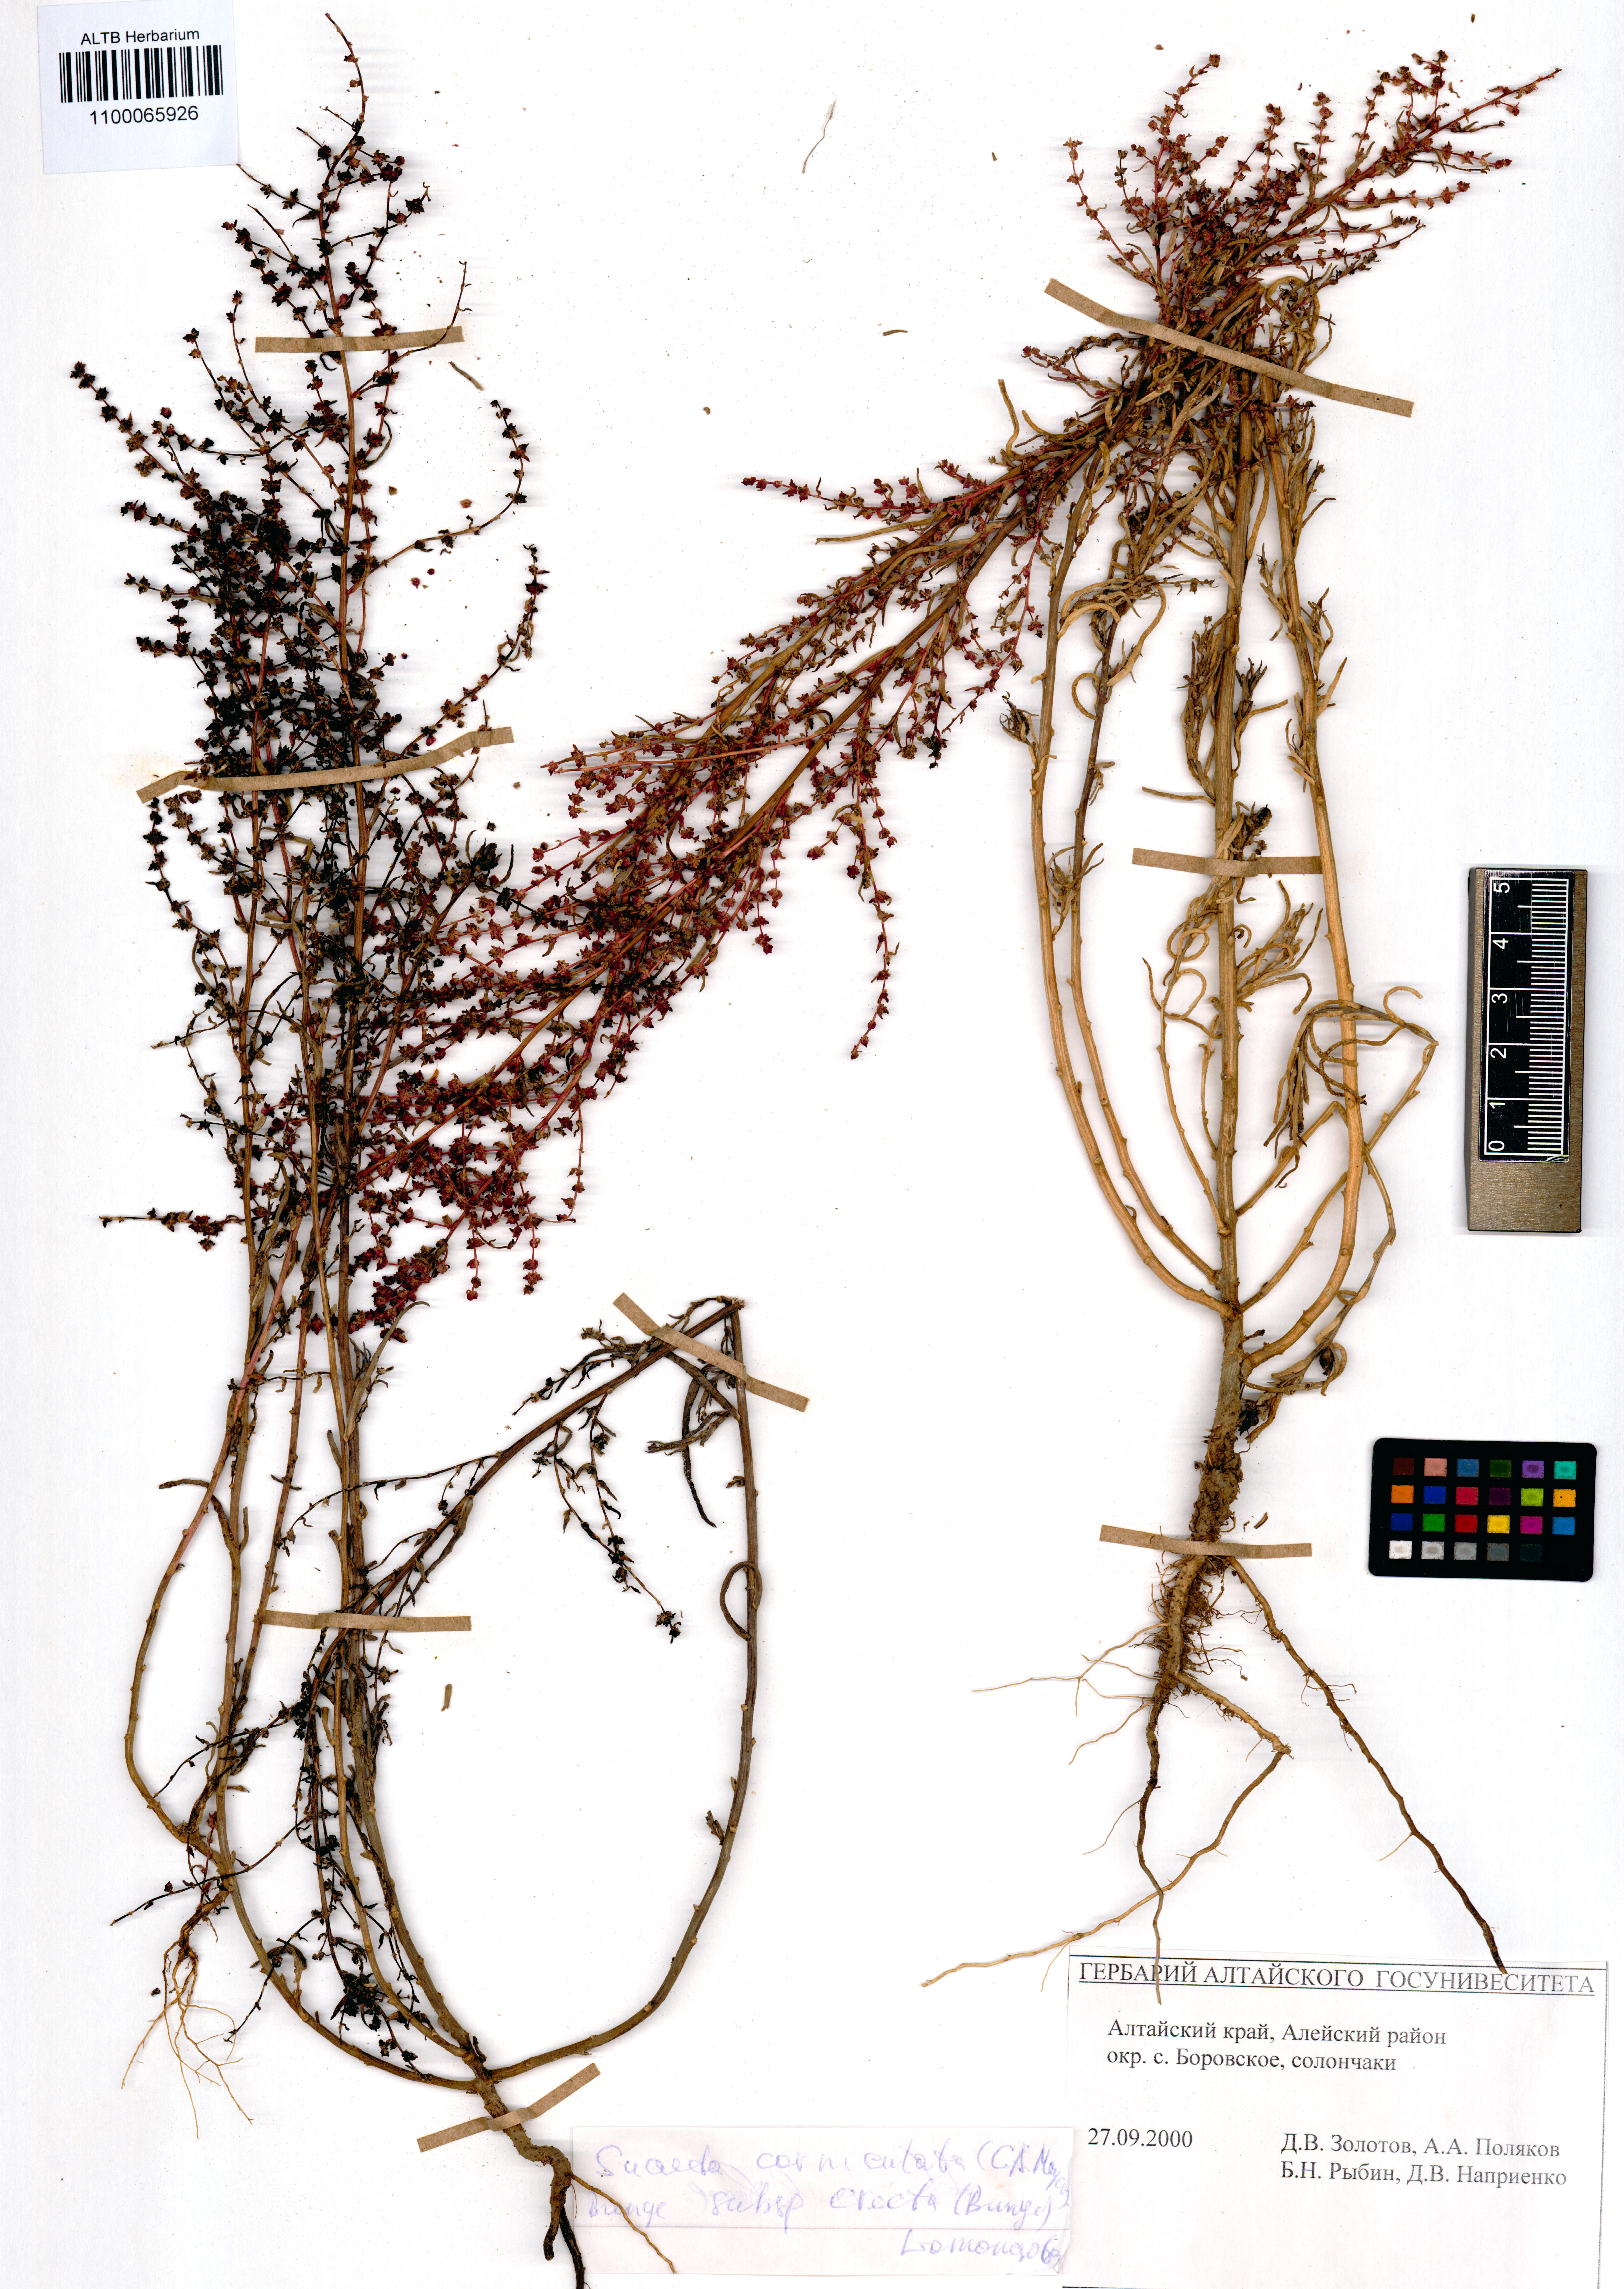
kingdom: Plantae
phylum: Tracheophyta
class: Magnoliopsida
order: Caryophyllales
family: Amaranthaceae
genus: Suaeda
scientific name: Suaeda corniculata
